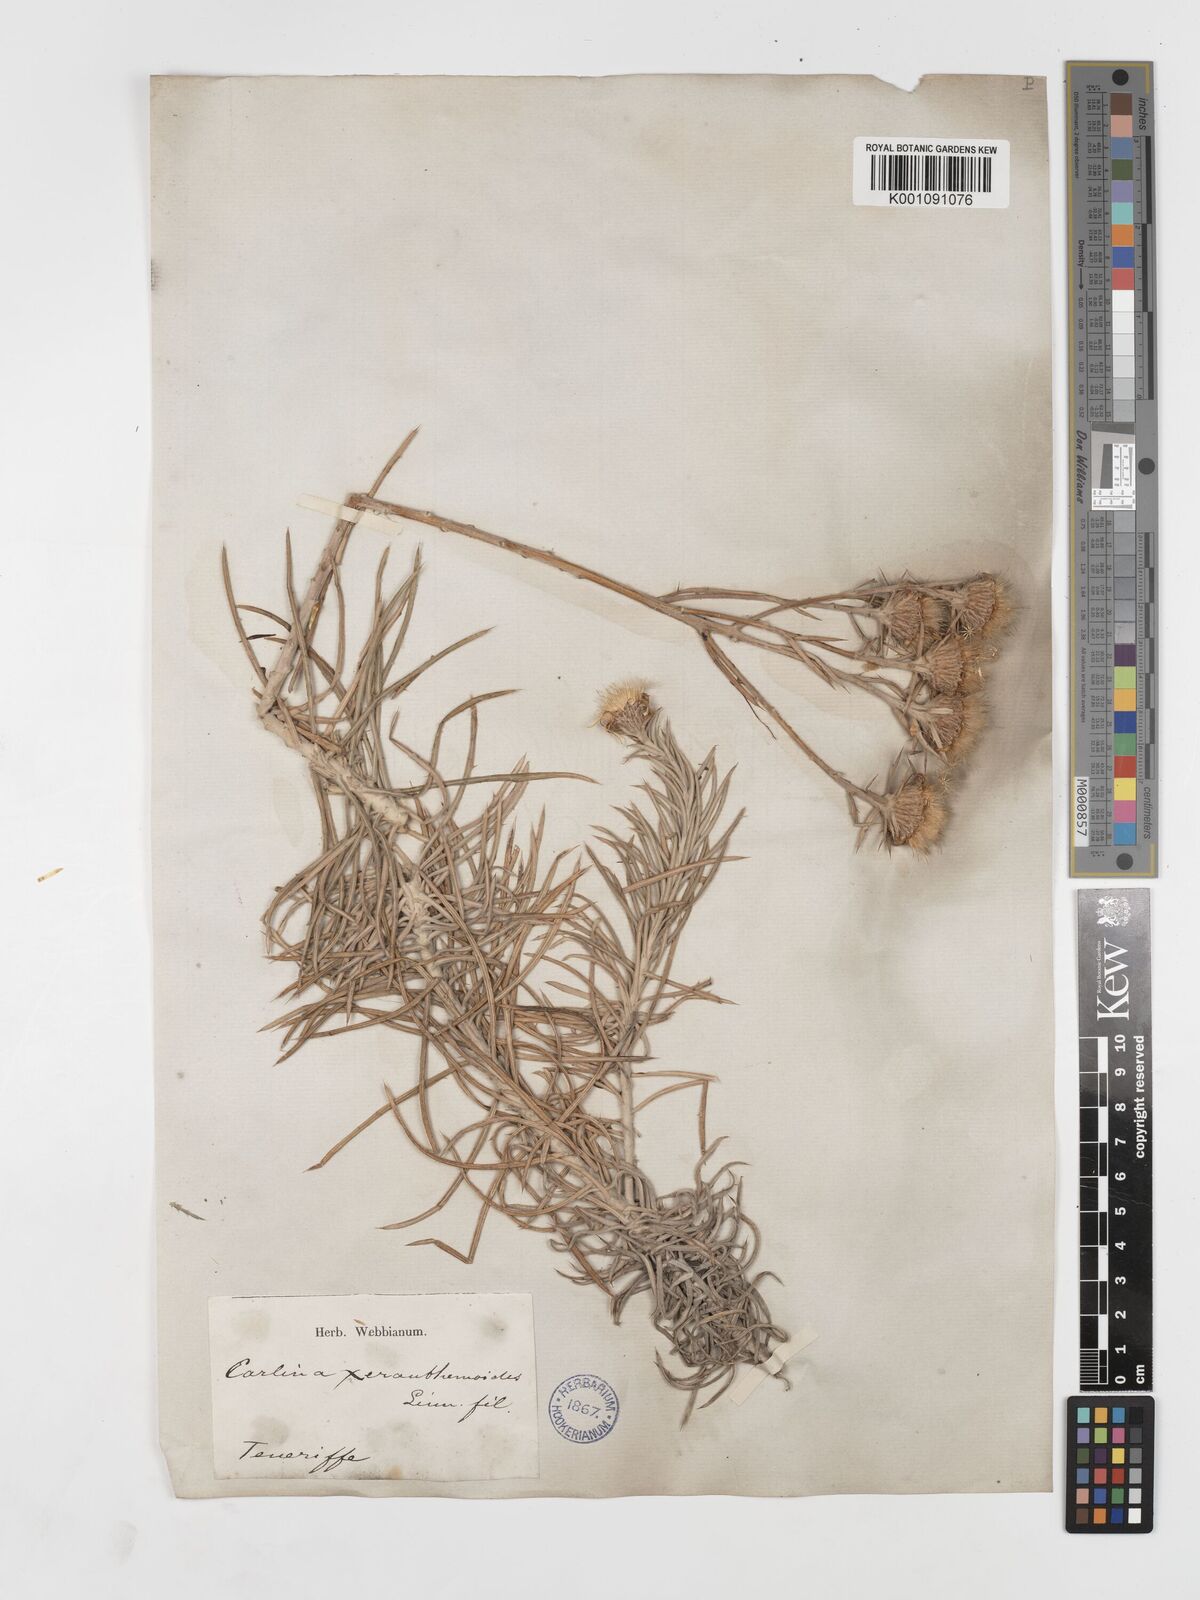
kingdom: Plantae
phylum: Tracheophyta
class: Magnoliopsida
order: Asterales
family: Asteraceae
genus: Carlina
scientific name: Carlina xeranthemoides
